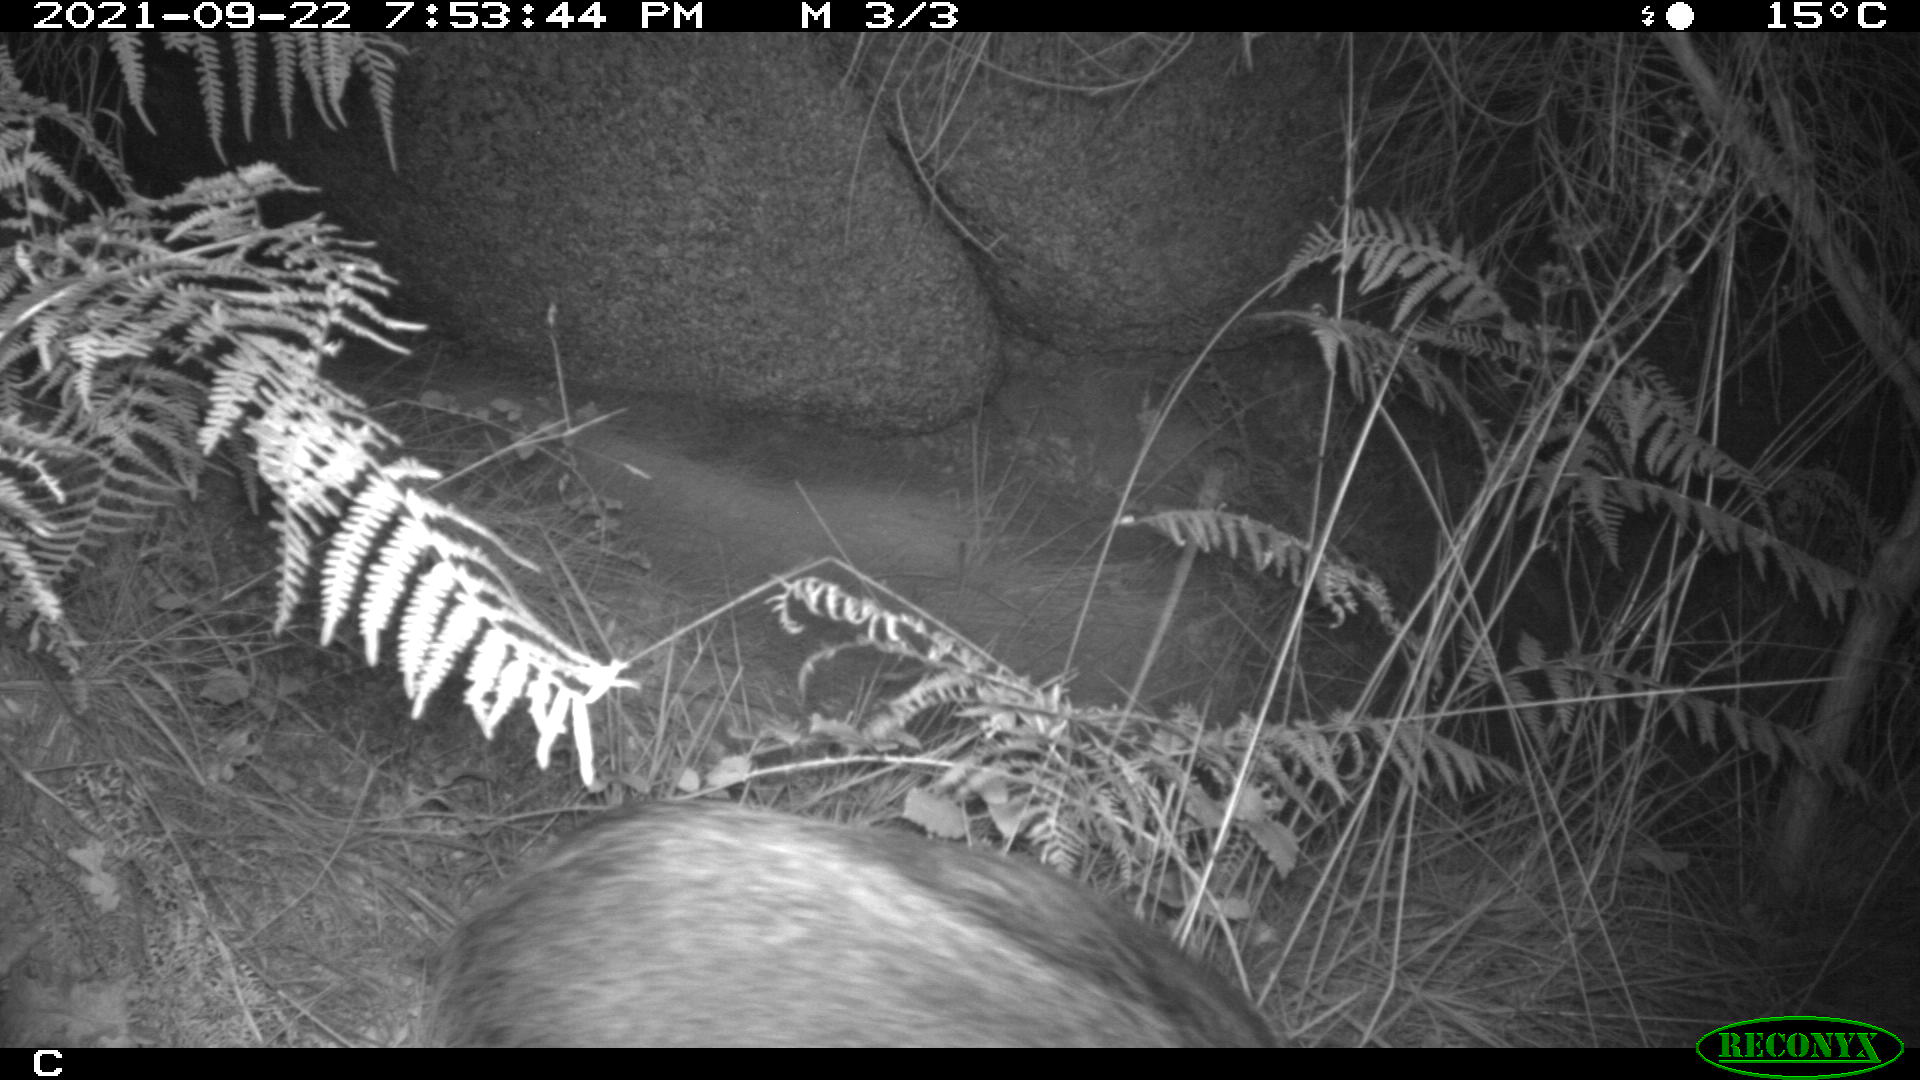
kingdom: Animalia
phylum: Chordata
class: Mammalia
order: Artiodactyla
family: Suidae
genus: Sus
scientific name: Sus scrofa
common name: Wild boar
